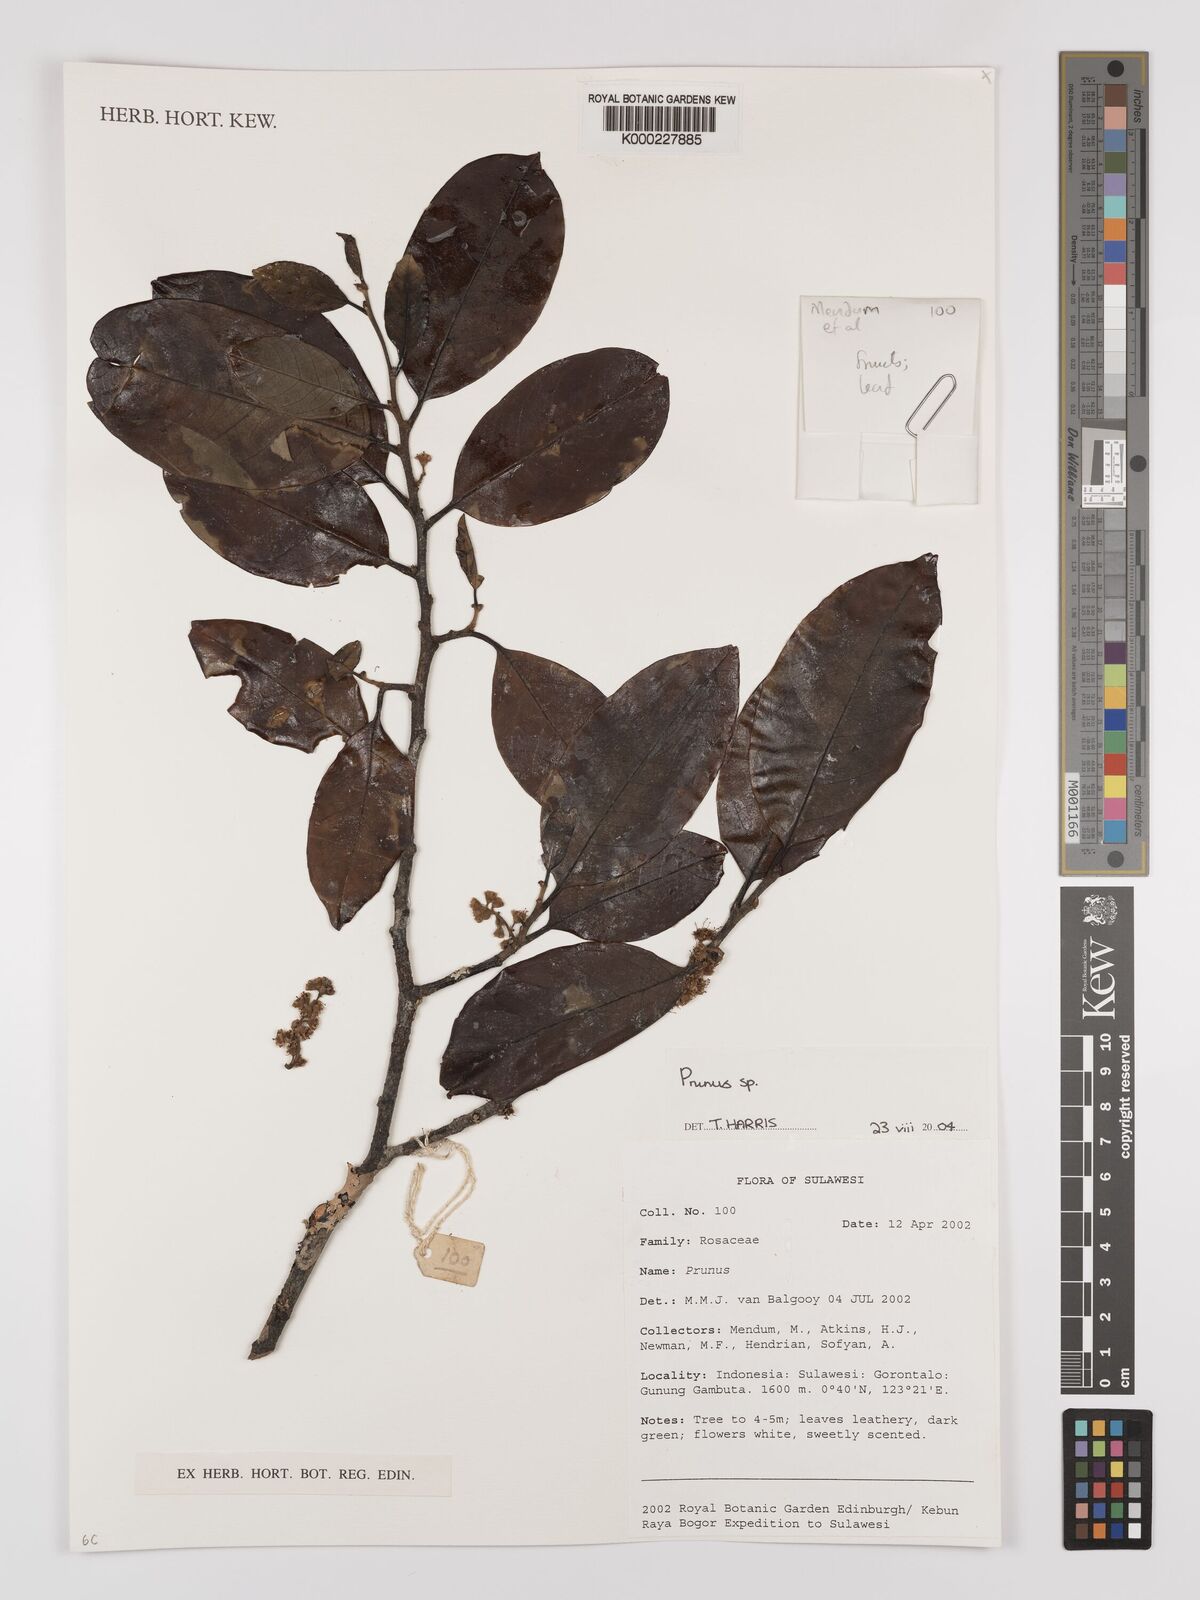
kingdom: Plantae
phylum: Tracheophyta
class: Magnoliopsida
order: Rosales
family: Rosaceae
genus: Prunus
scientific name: Prunus
